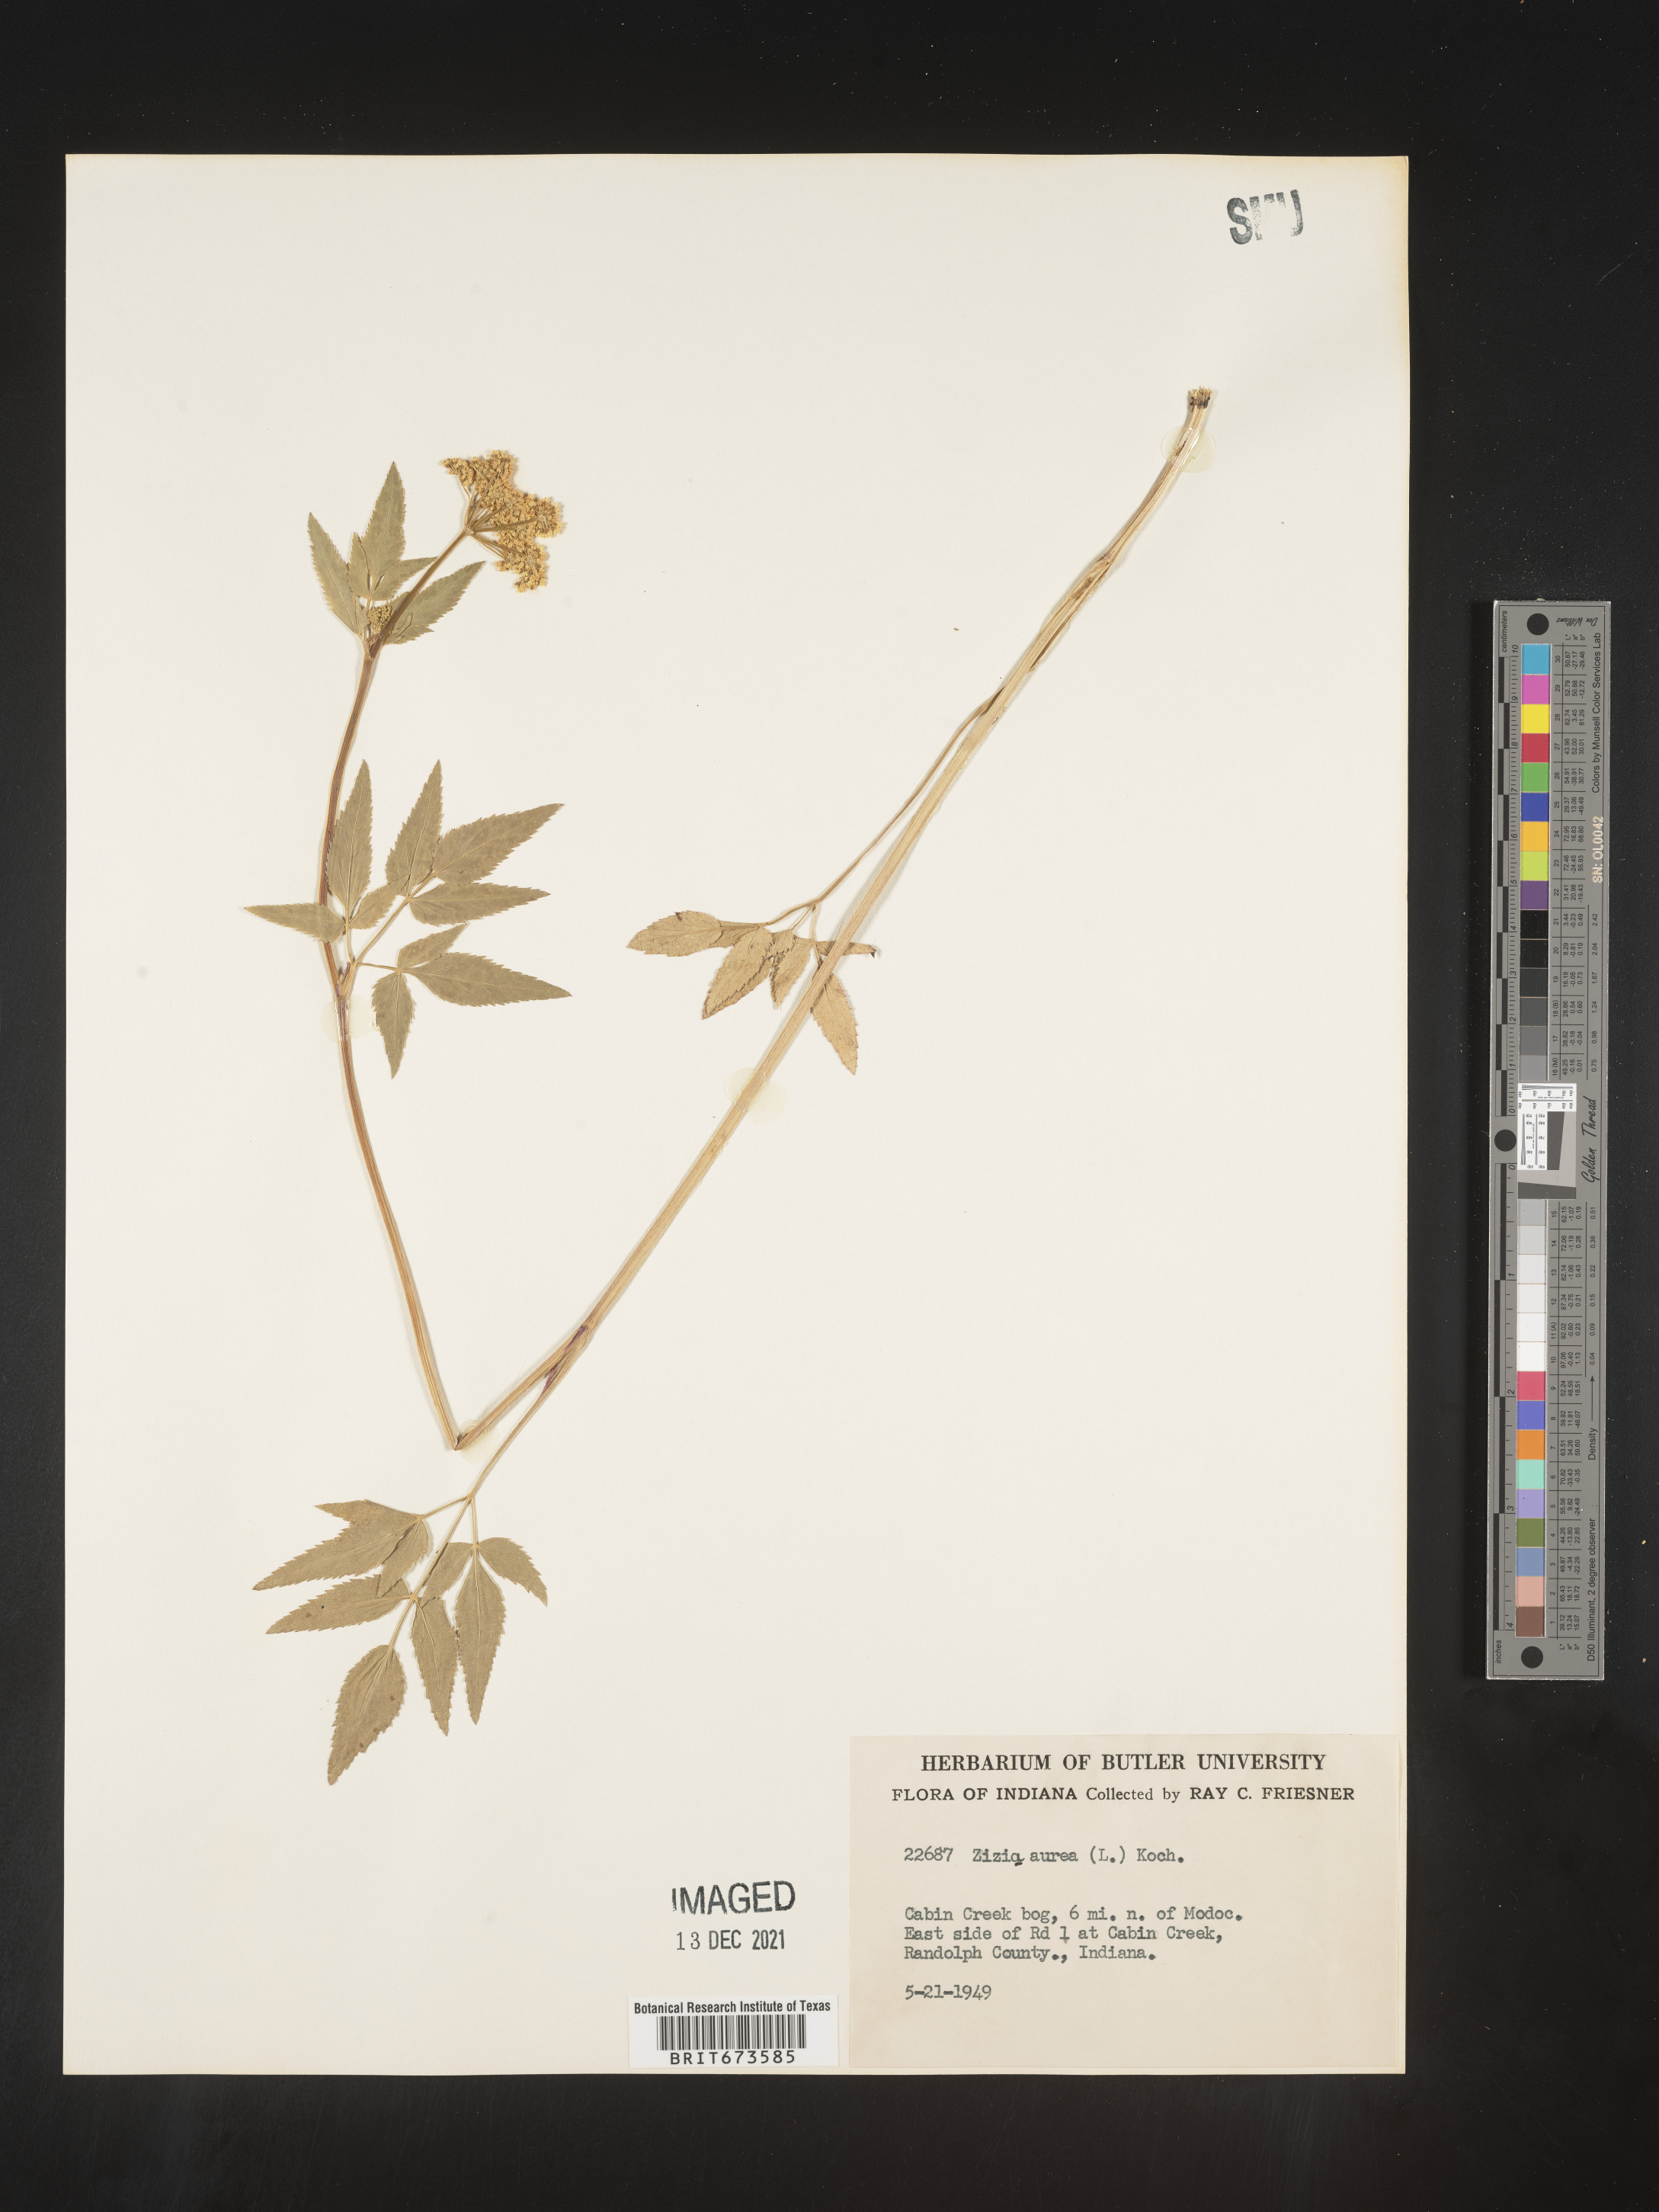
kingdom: Plantae
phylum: Tracheophyta
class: Magnoliopsida
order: Apiales
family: Apiaceae
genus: Zizia
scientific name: Zizia aurea
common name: Golden alexanders
